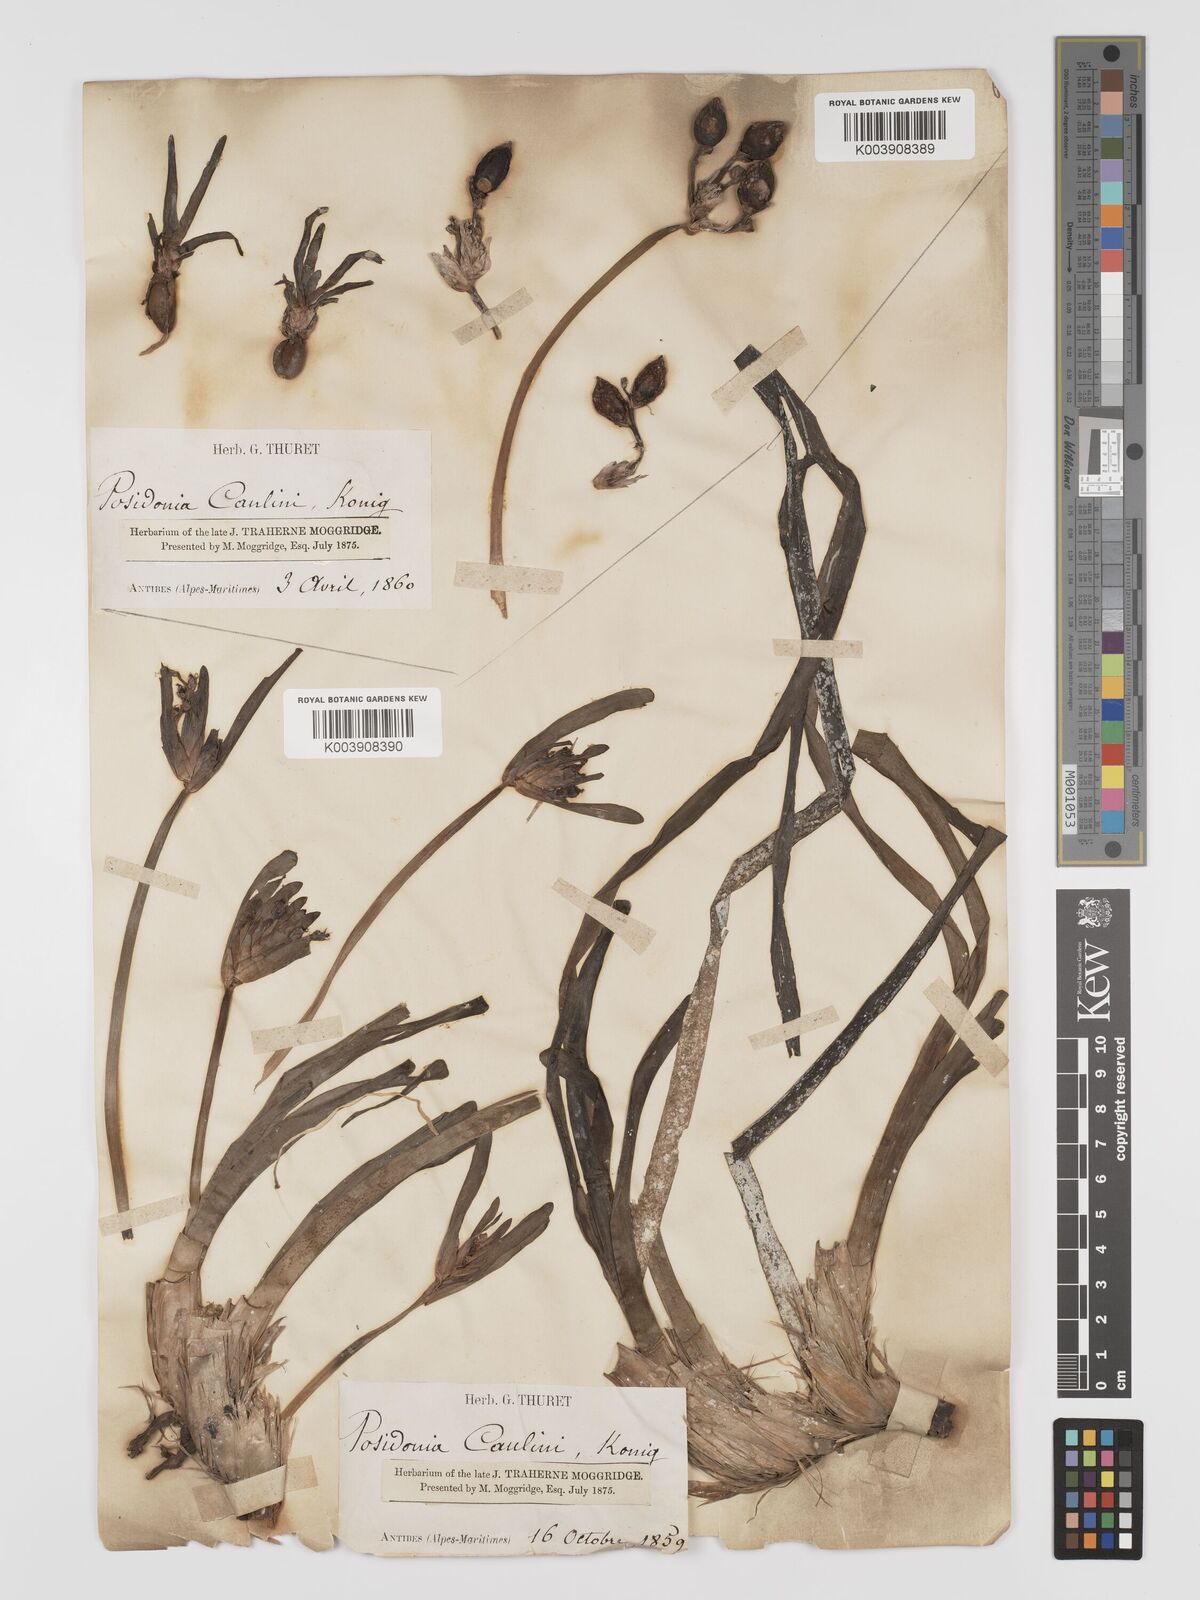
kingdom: Plantae
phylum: Tracheophyta
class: Liliopsida
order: Alismatales
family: Posidoniaceae
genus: Posidonia
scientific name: Posidonia oceanica
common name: Mediterranean tapeweed
